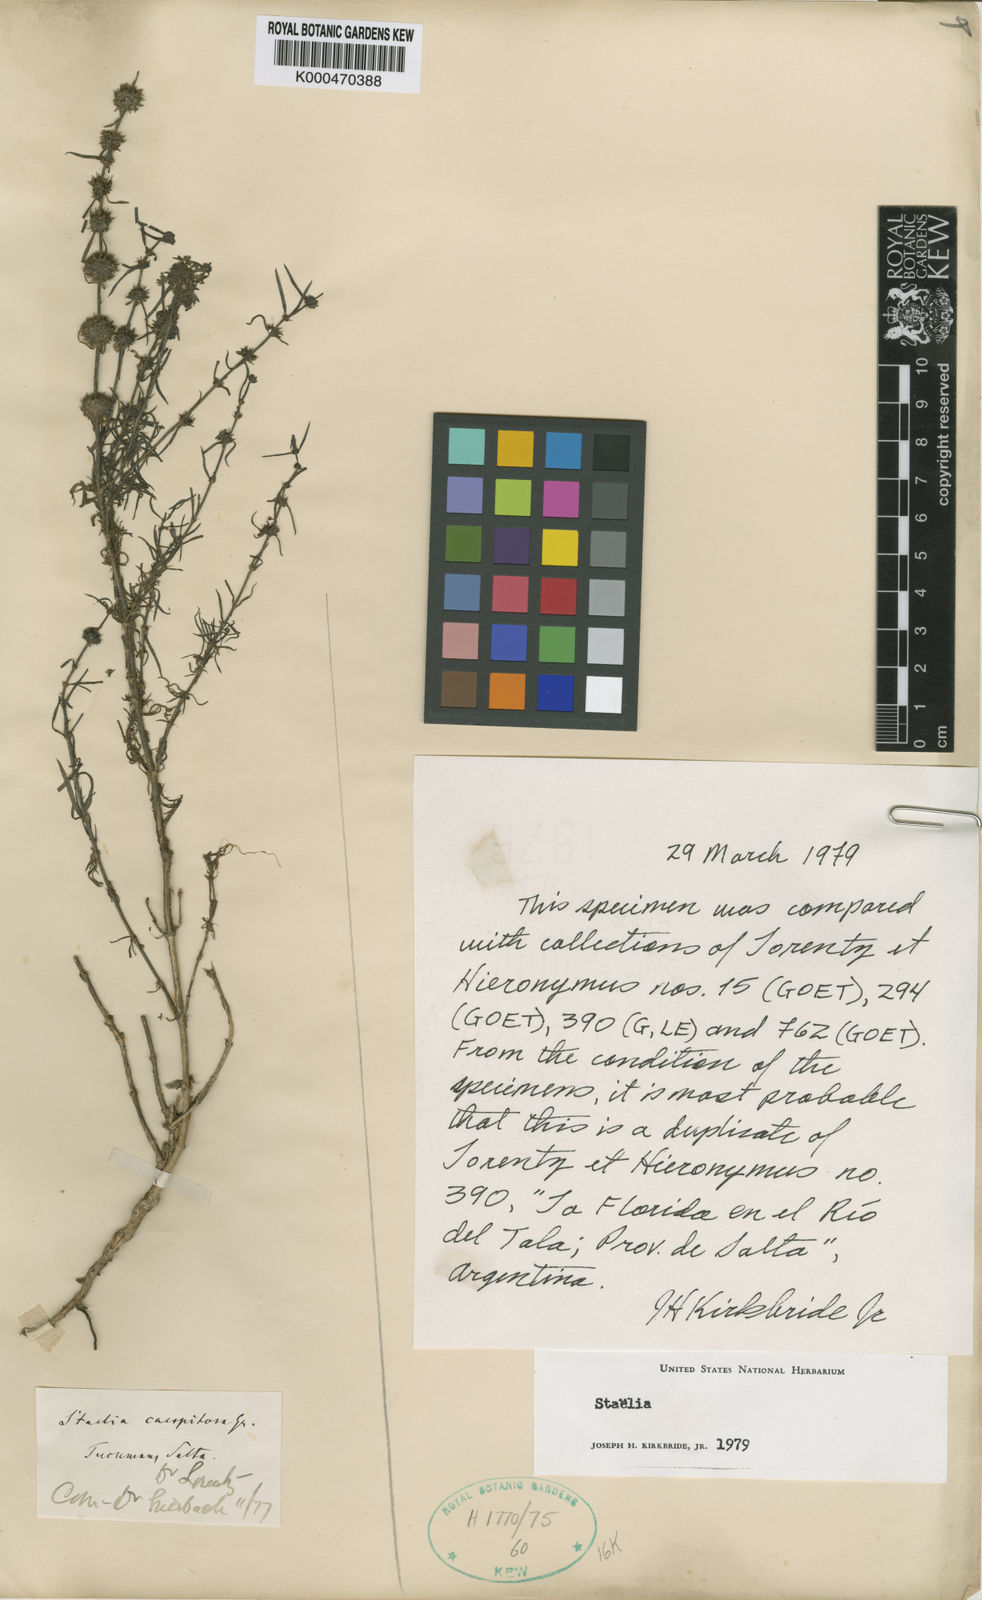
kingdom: Plantae
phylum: Tracheophyta
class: Magnoliopsida
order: Gentianales
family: Rubiaceae
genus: Staelia
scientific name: Staelia virgata
